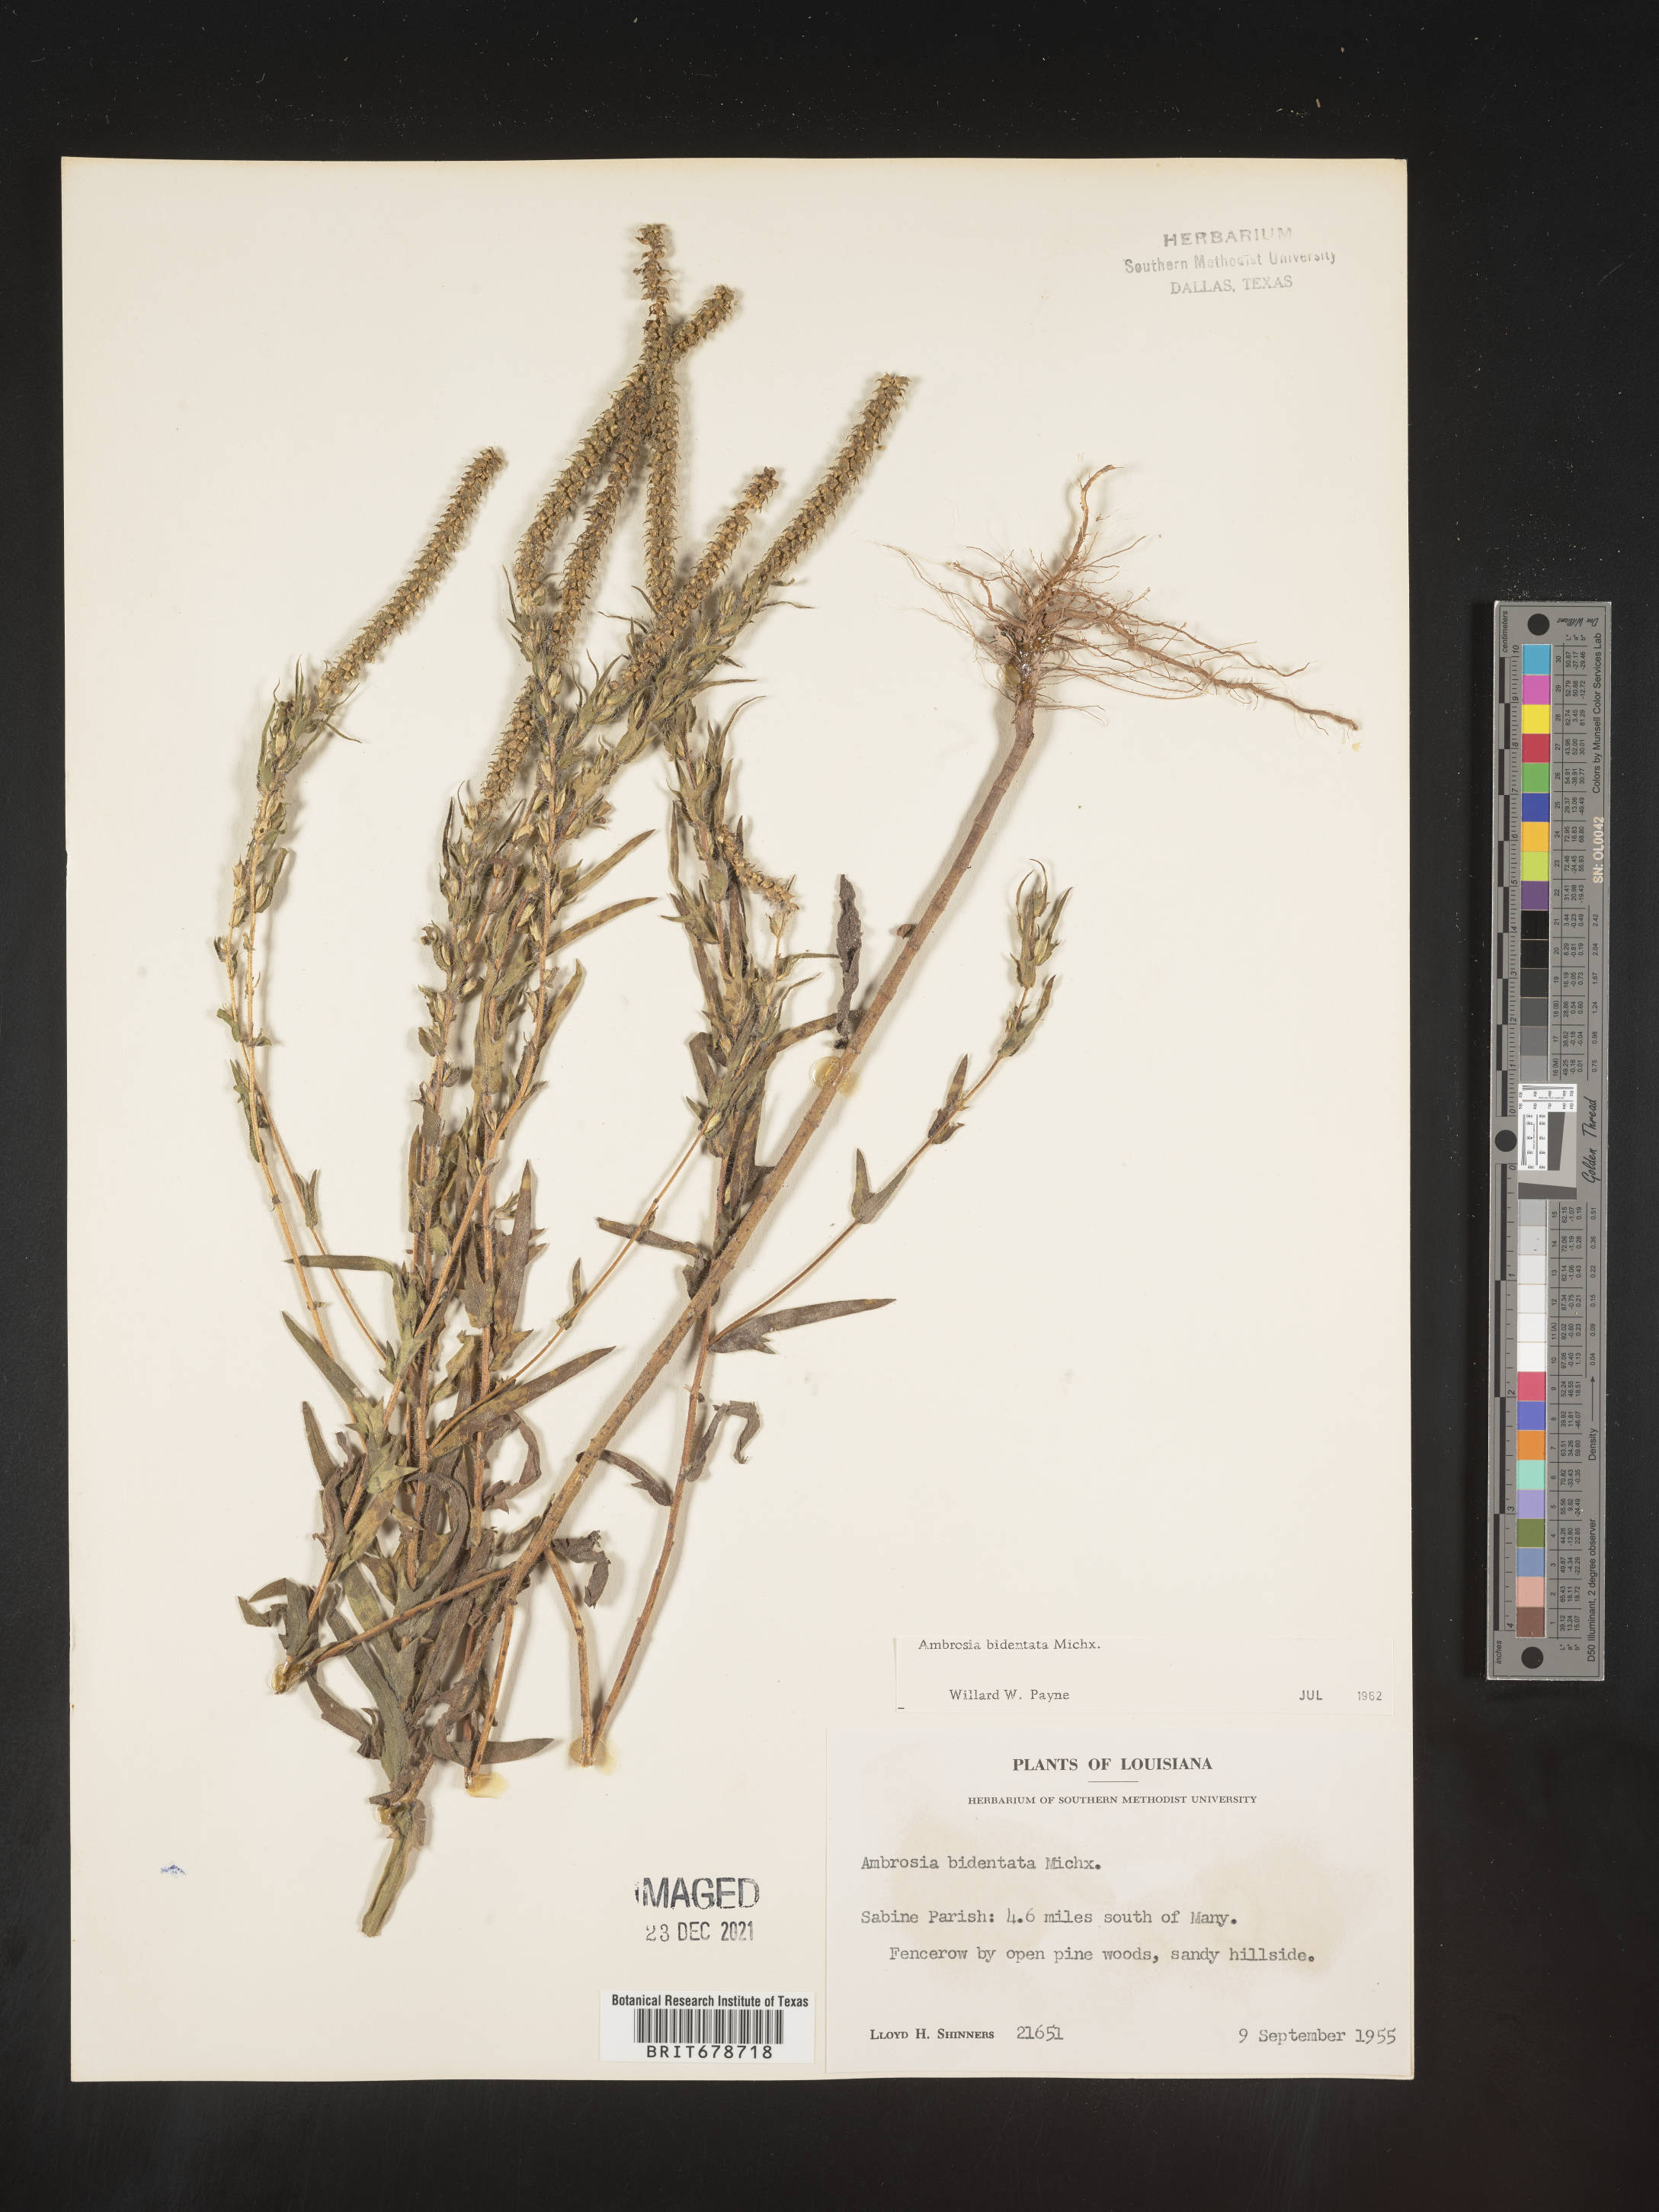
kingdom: Plantae
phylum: Tracheophyta
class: Magnoliopsida
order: Asterales
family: Asteraceae
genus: Ambrosia
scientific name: Ambrosia bidentata
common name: Southern ragweed
